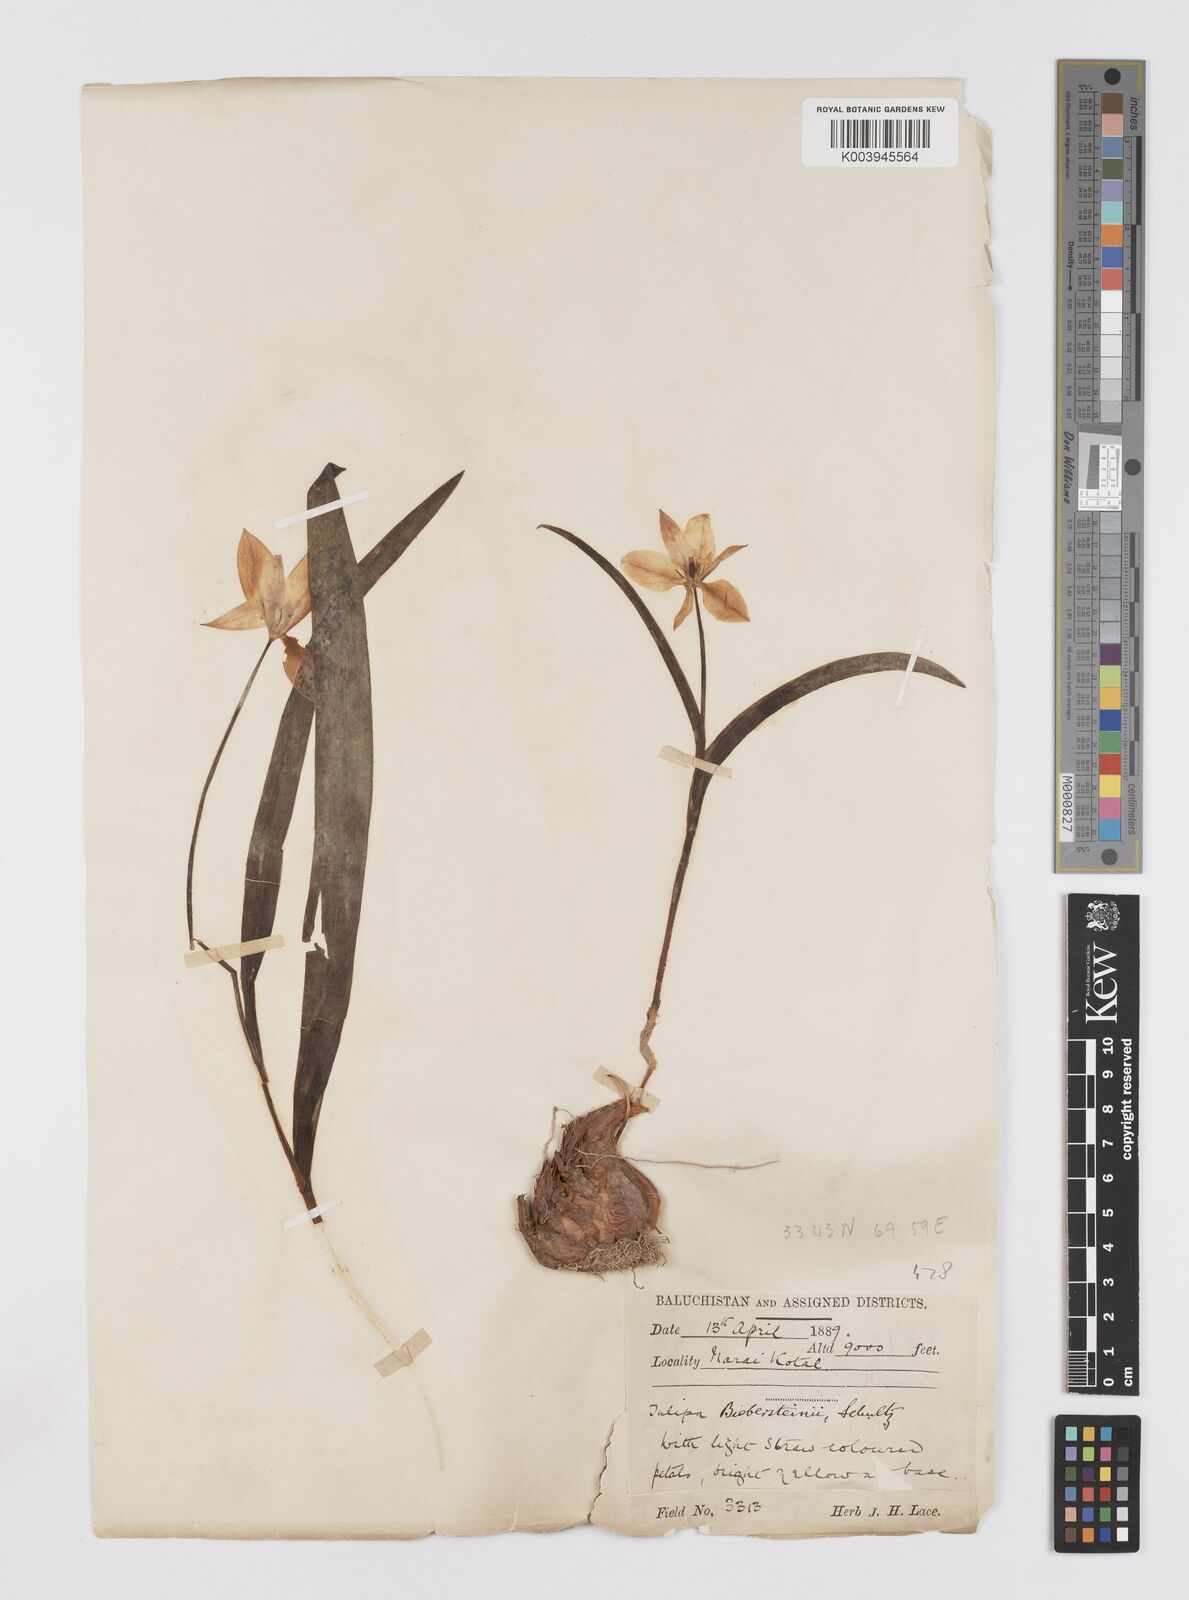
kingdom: Plantae
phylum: Tracheophyta
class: Liliopsida
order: Liliales
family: Liliaceae
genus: Tulipa
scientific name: Tulipa biflora
